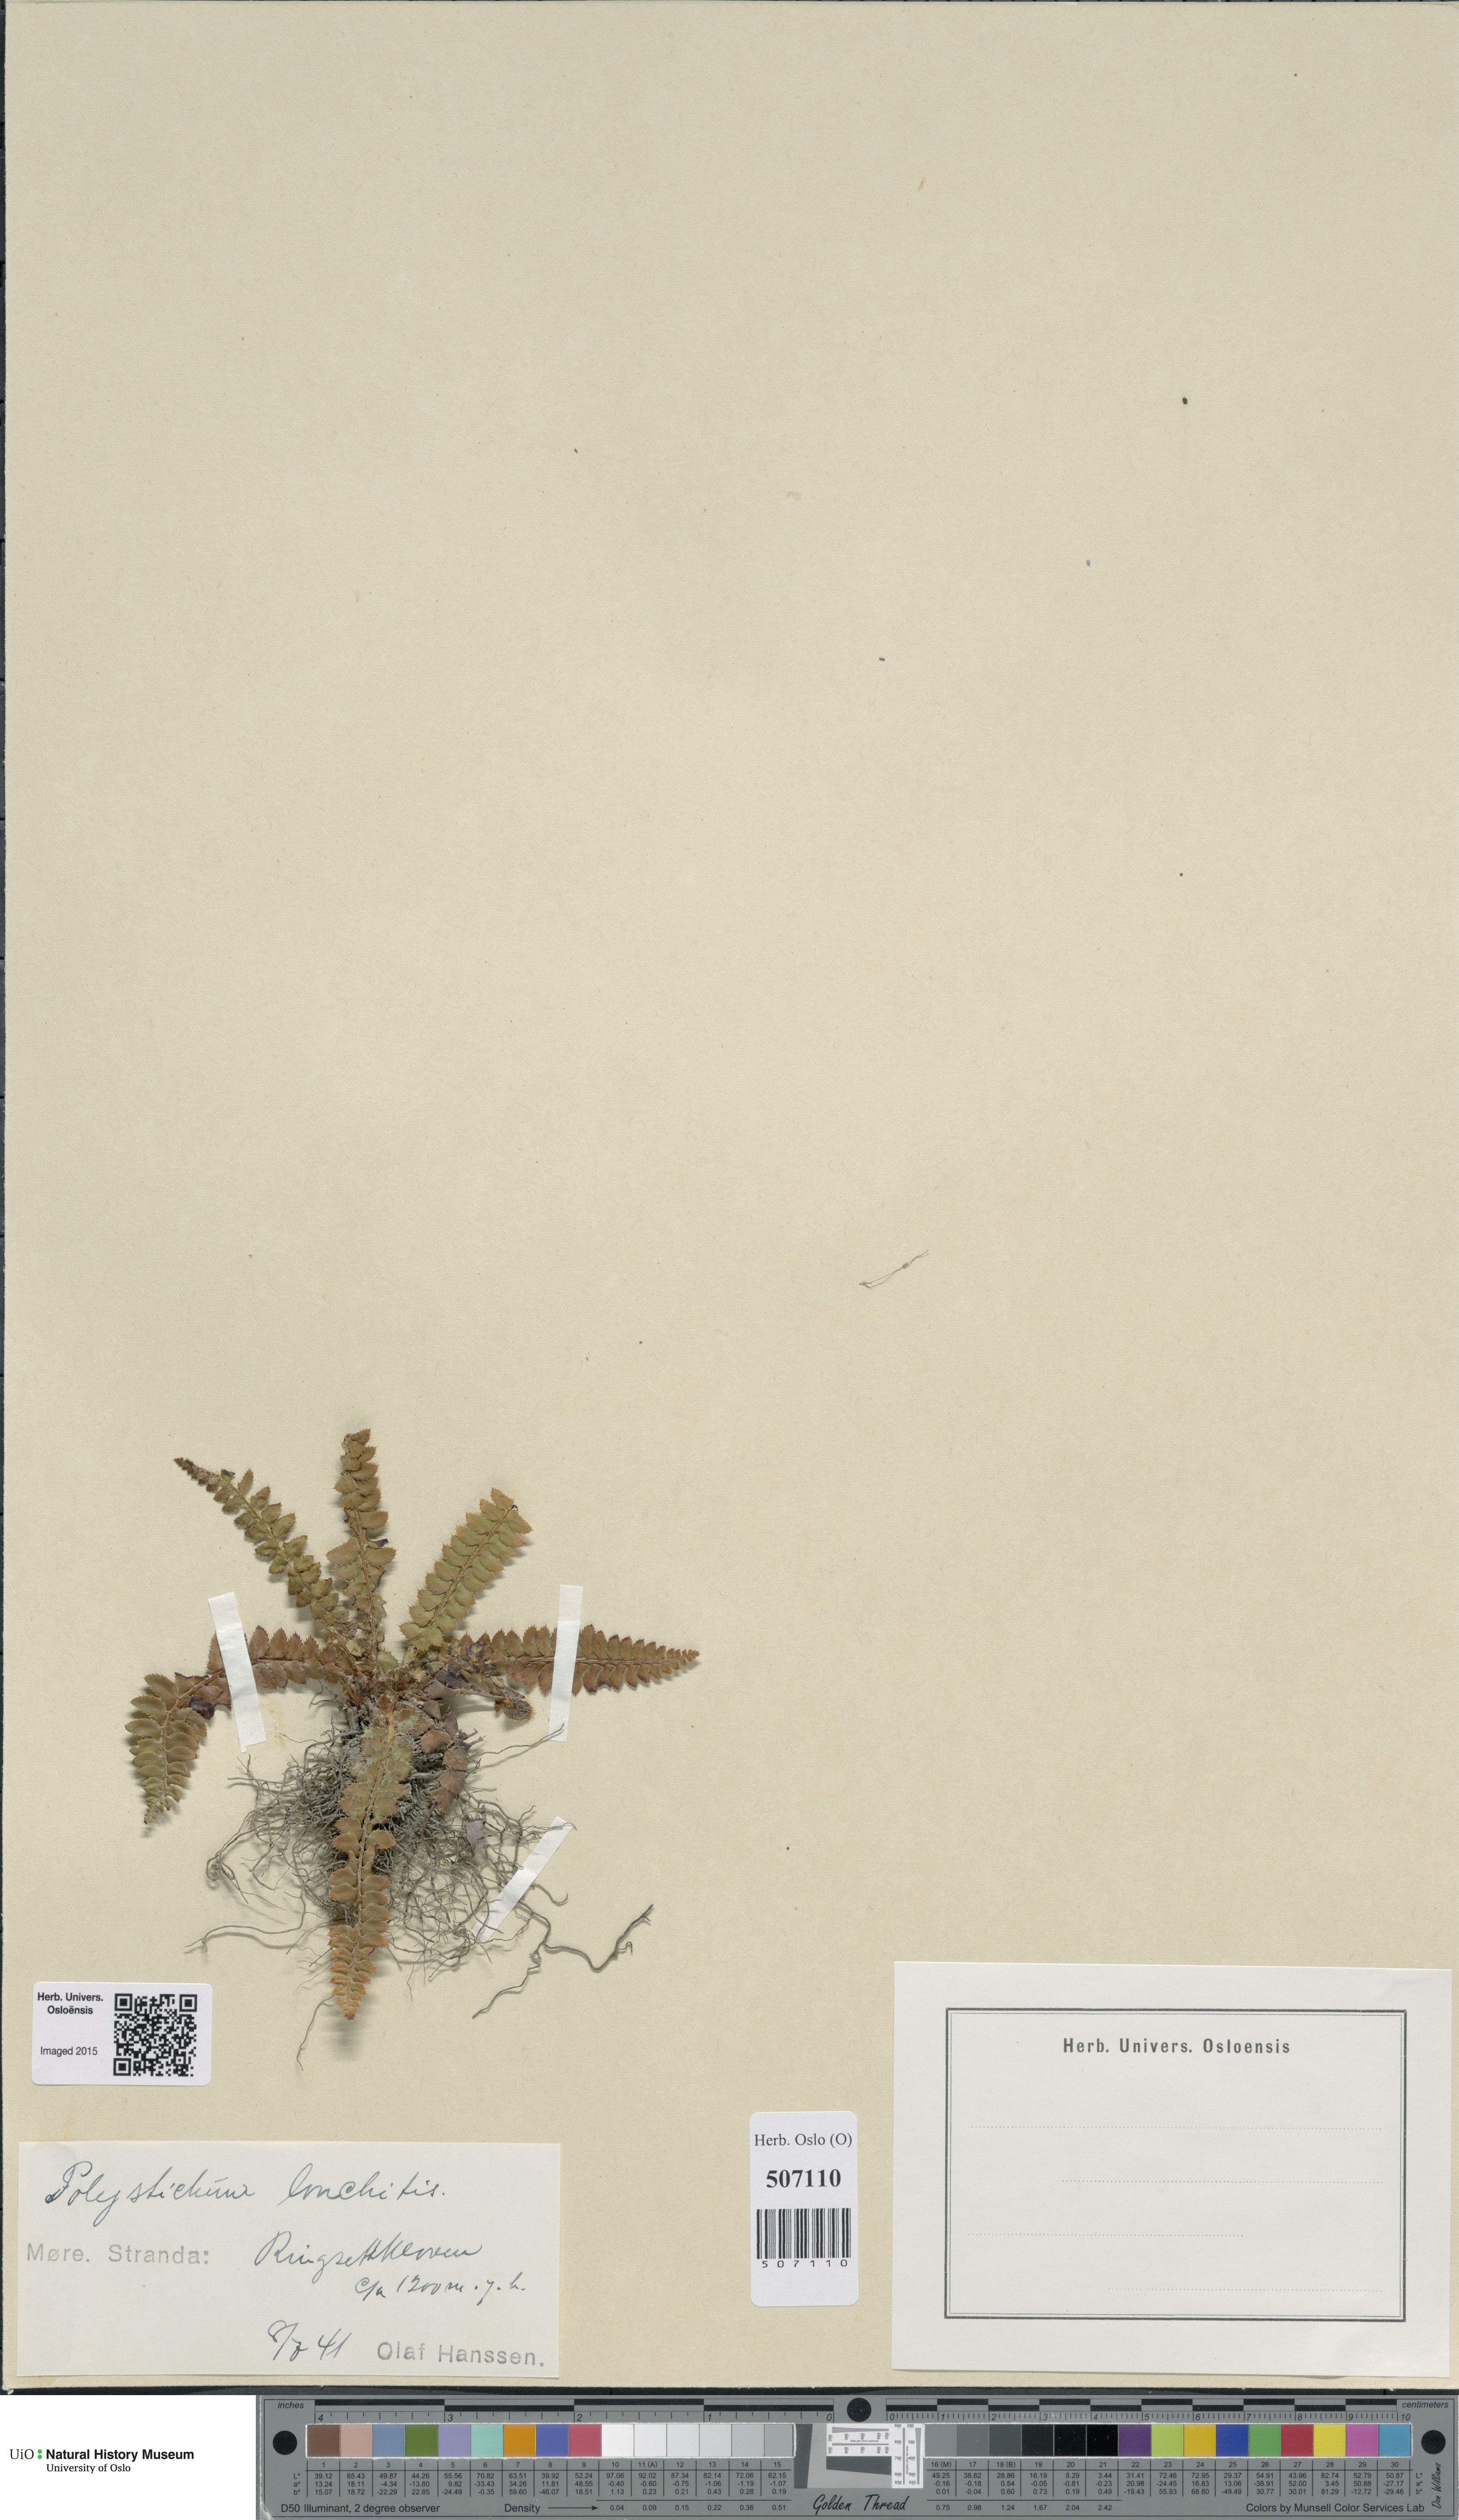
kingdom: Plantae
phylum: Tracheophyta
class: Polypodiopsida
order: Polypodiales
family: Dryopteridaceae
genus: Polystichum
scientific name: Polystichum lonchitis
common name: Holly fern
